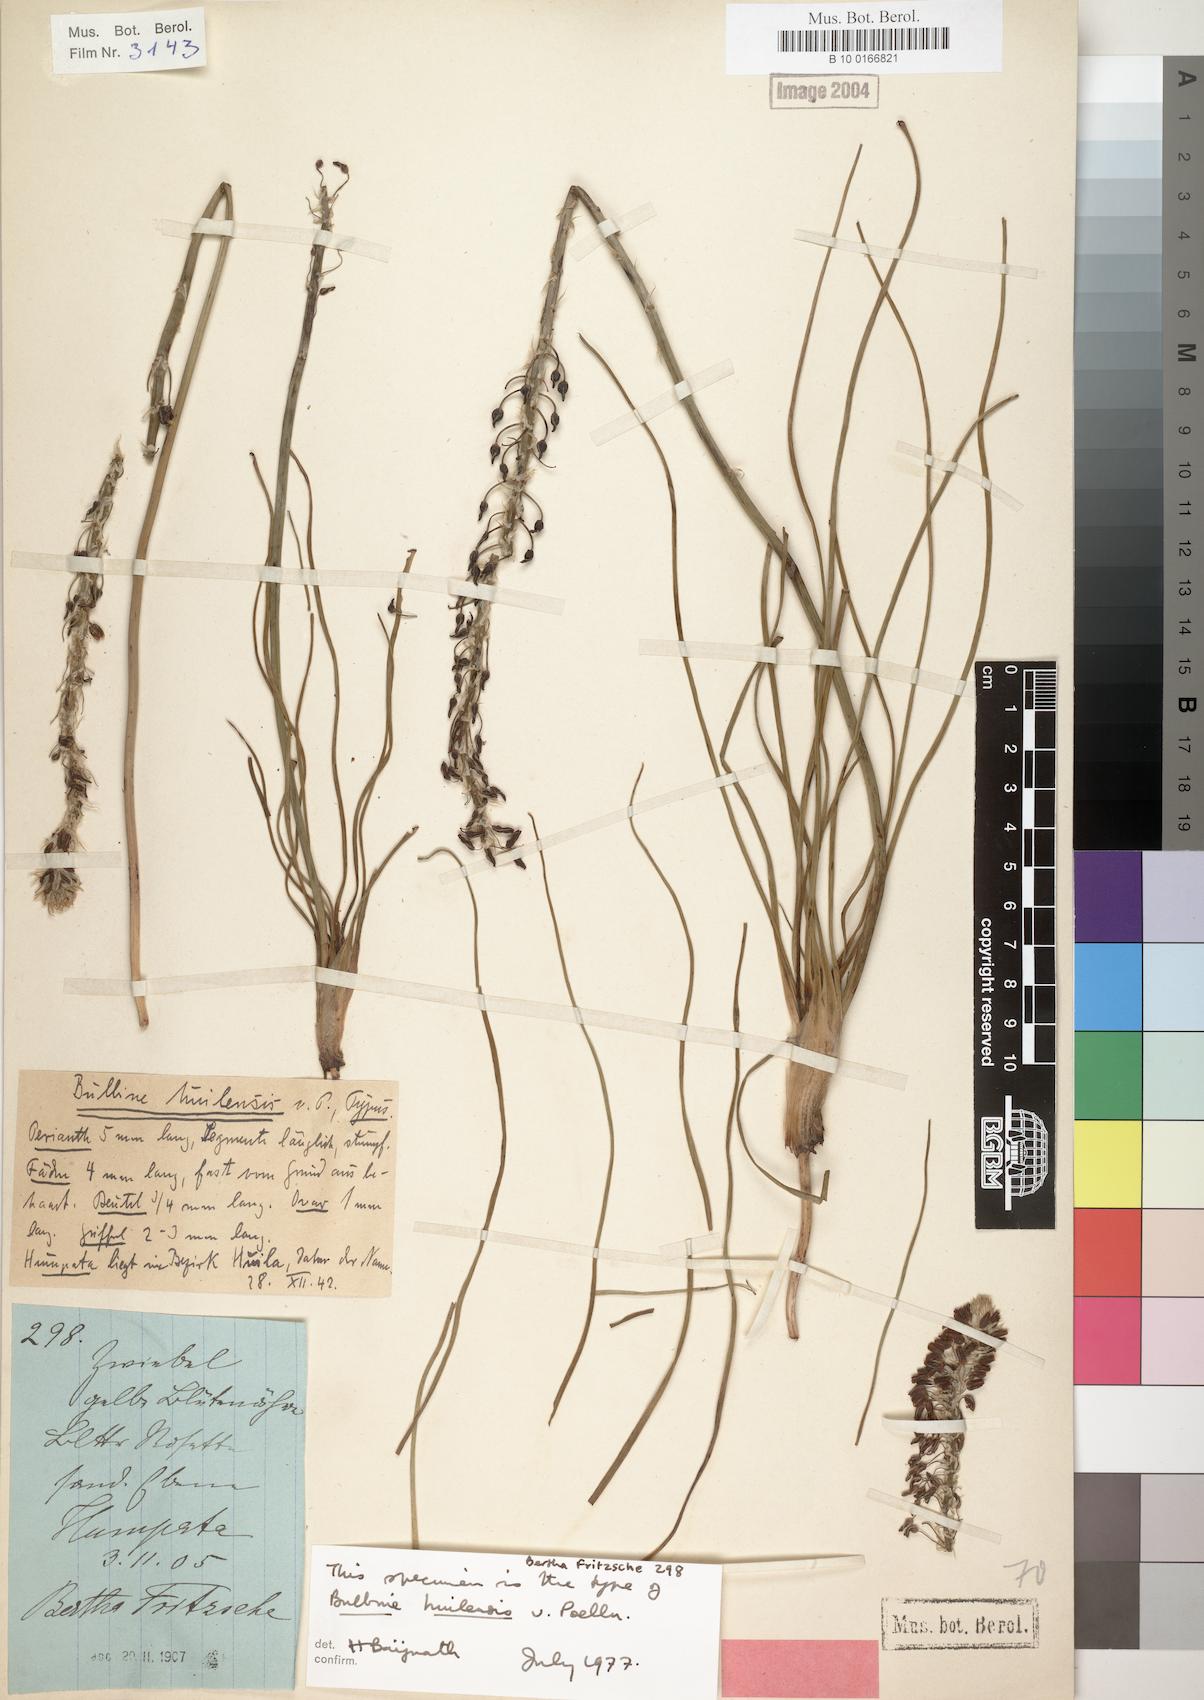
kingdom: Plantae
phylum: Tracheophyta
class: Liliopsida
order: Asparagales
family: Asphodelaceae
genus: Bulbine
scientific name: Bulbine abyssinica
